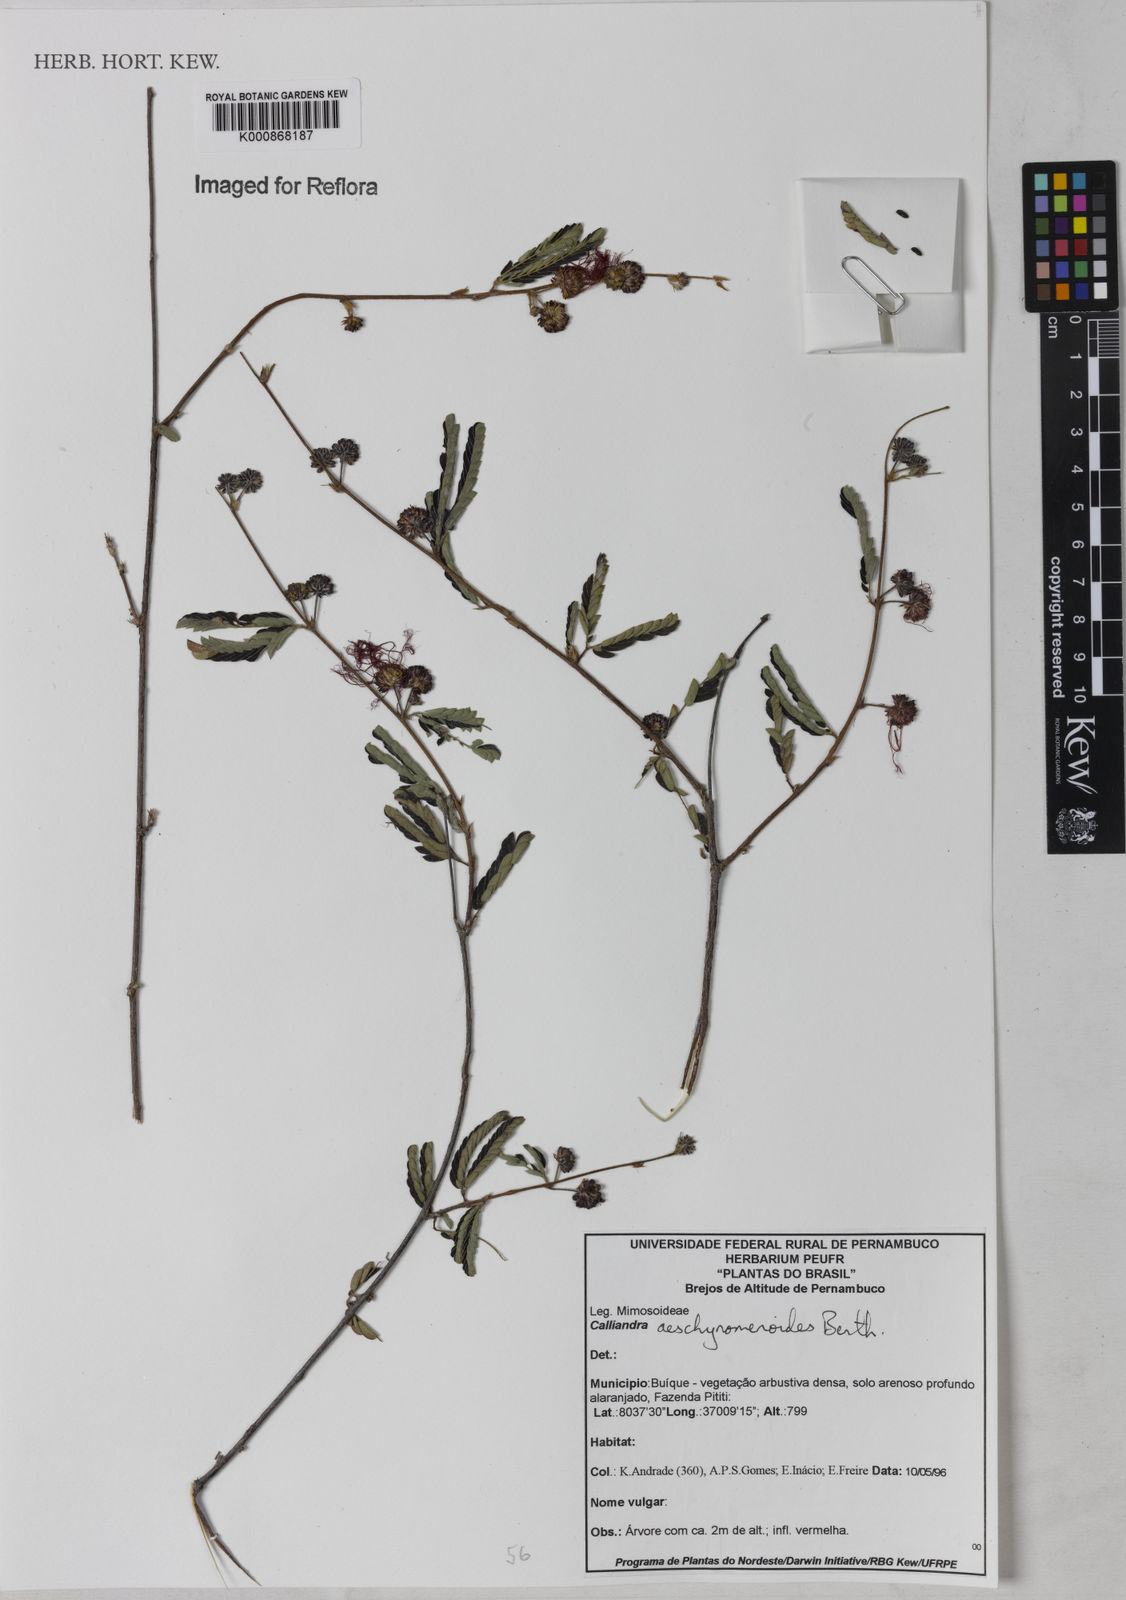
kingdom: Plantae
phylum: Tracheophyta
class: Magnoliopsida
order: Fabales
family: Fabaceae
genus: Calliandra
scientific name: Calliandra aeschynomenoides
